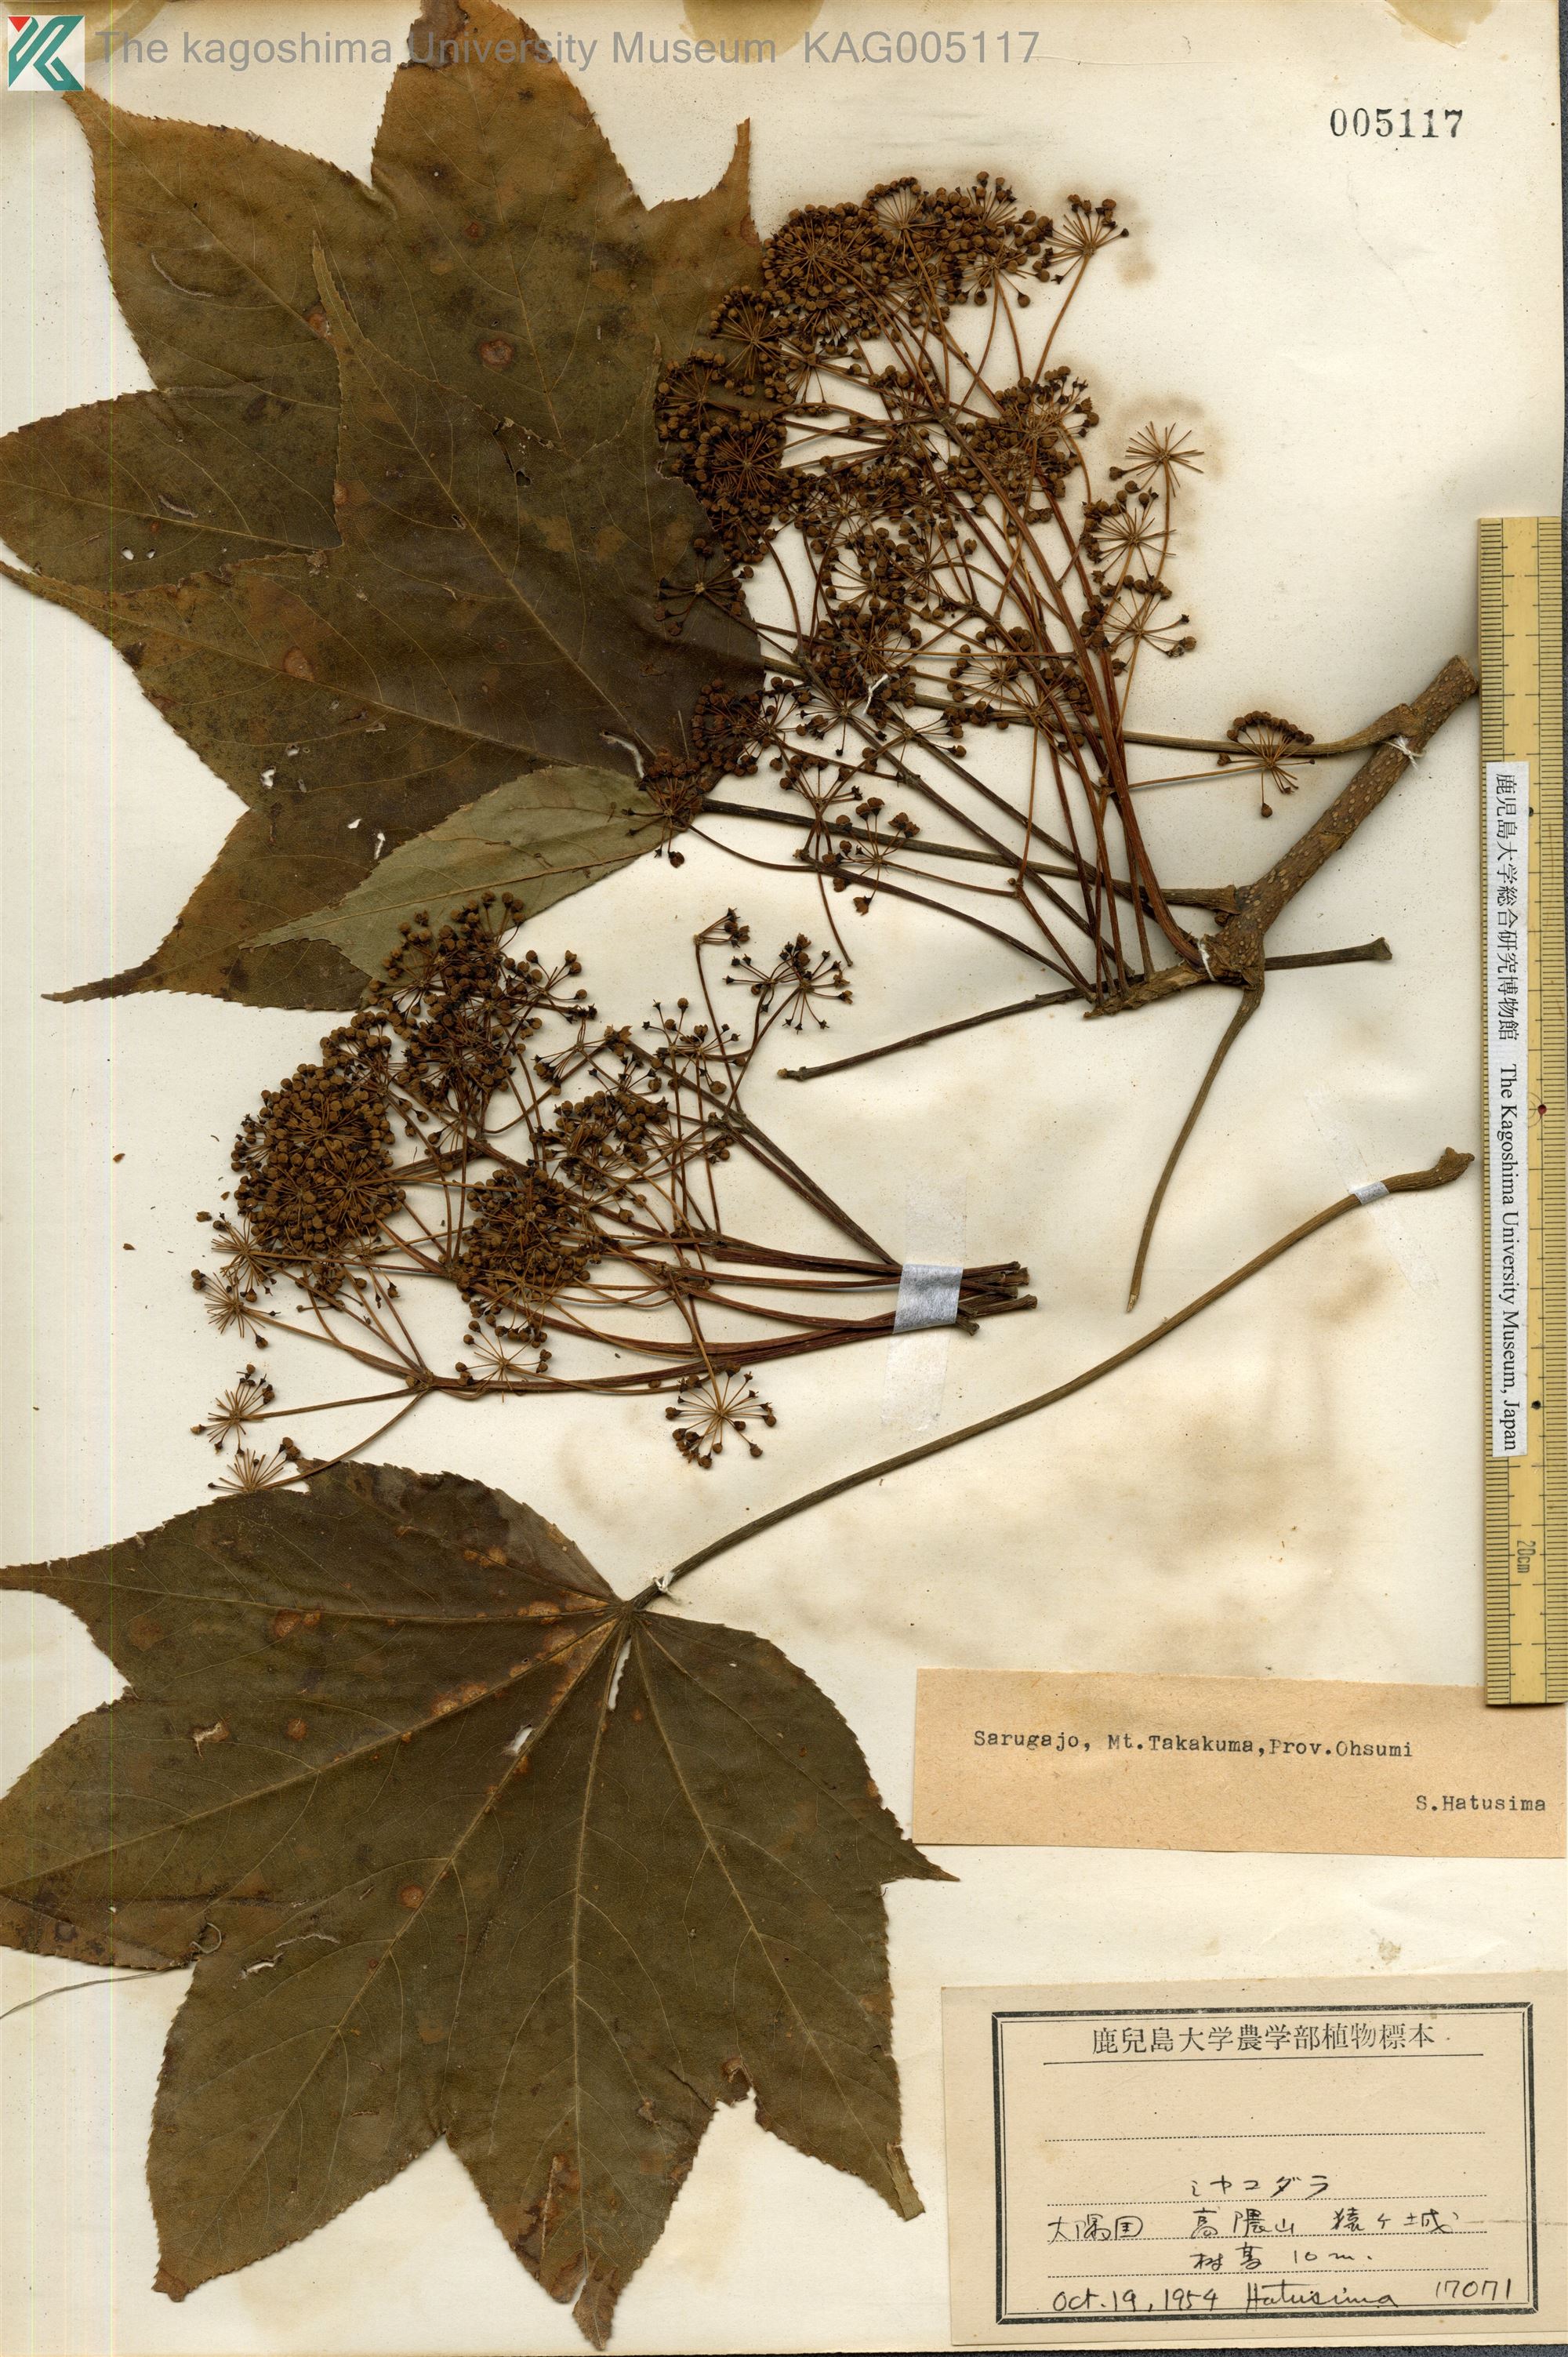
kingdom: Plantae
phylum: Tracheophyta
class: Magnoliopsida
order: Apiales
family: Araliaceae
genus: Kalopanax
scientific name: Kalopanax septemlobus
